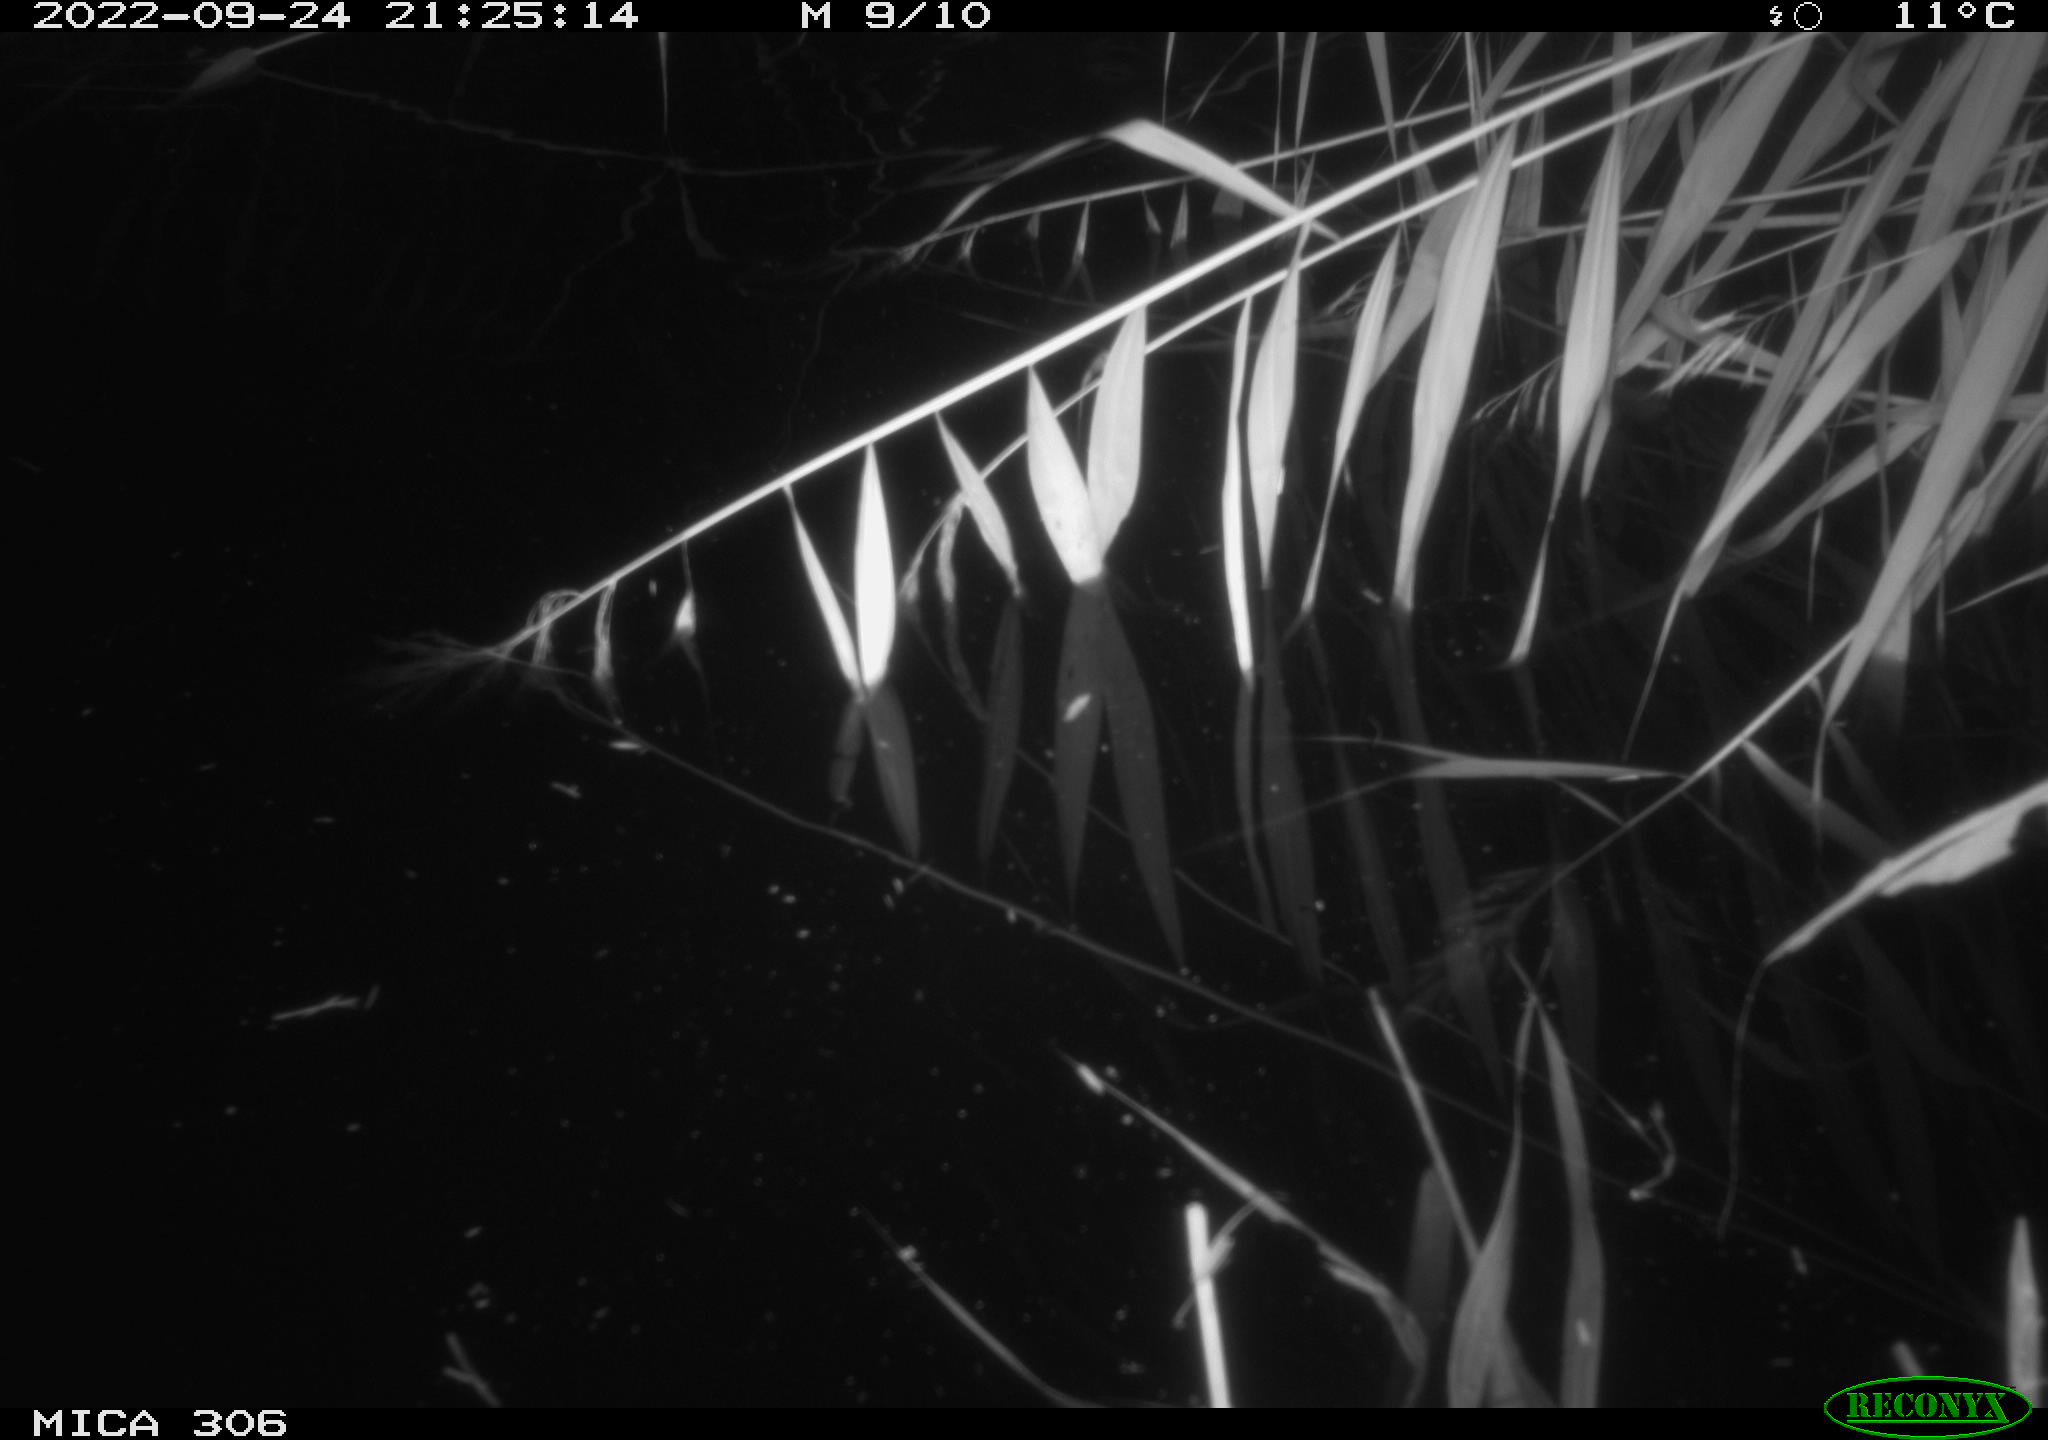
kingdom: Animalia
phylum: Chordata
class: Mammalia
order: Rodentia
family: Muridae
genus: Rattus
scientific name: Rattus norvegicus
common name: Brown rat
